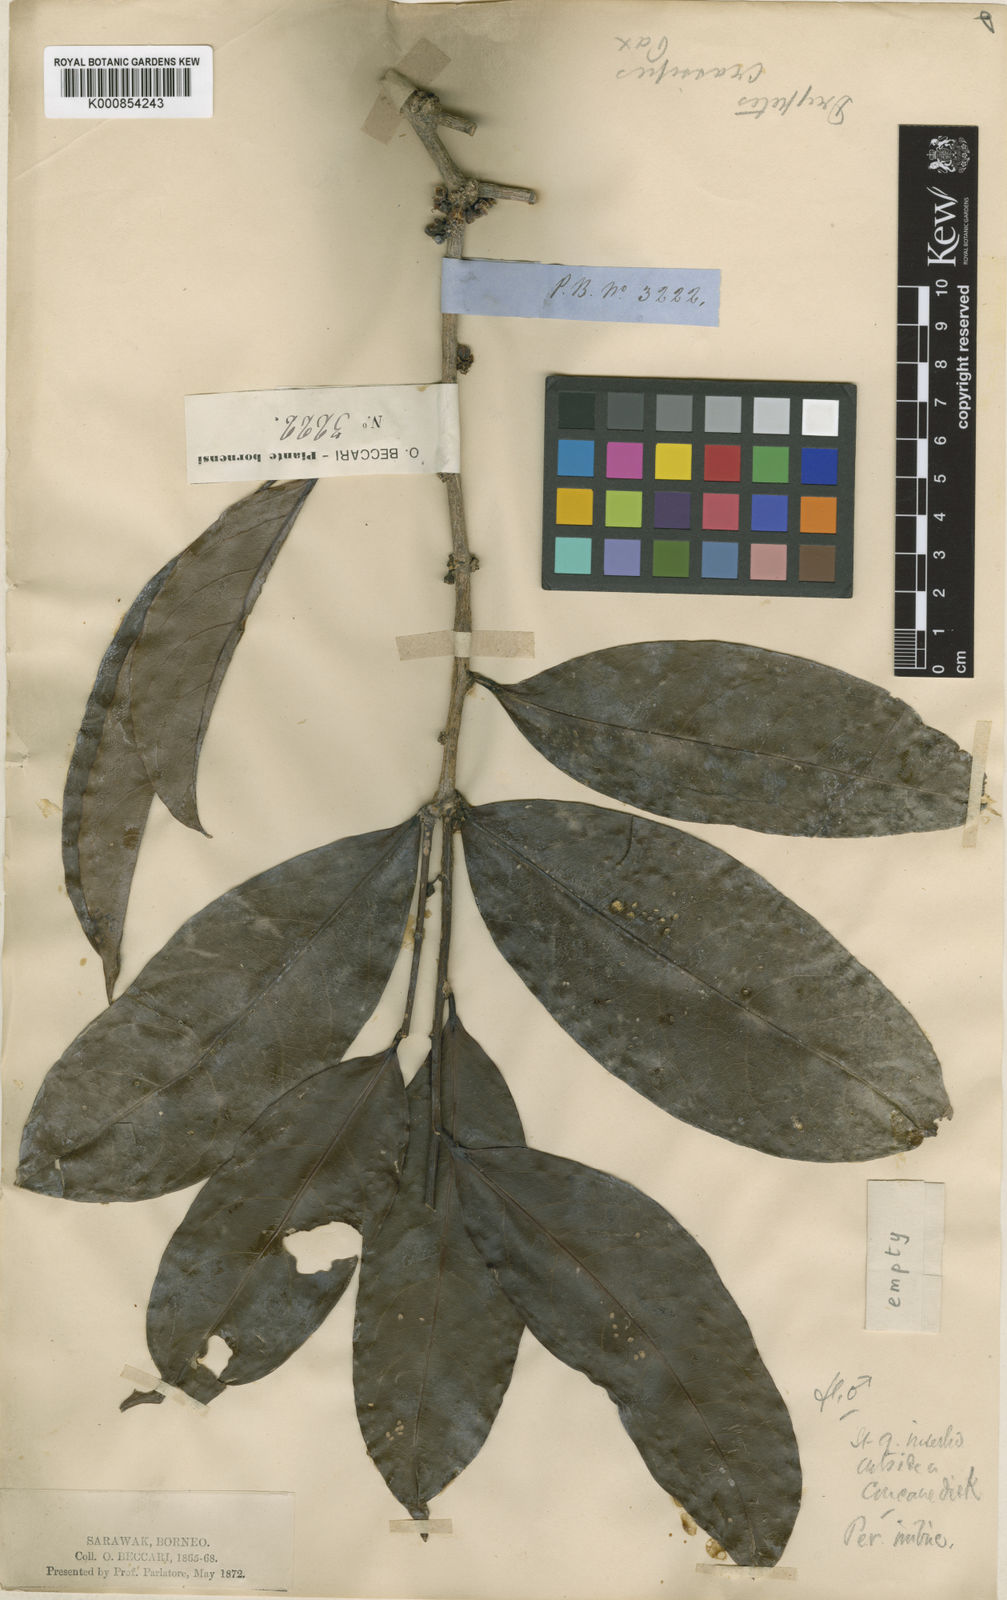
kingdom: Plantae
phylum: Tracheophyta
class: Magnoliopsida
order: Malpighiales
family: Putranjivaceae
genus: Drypetes
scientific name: Drypetes crassipes
